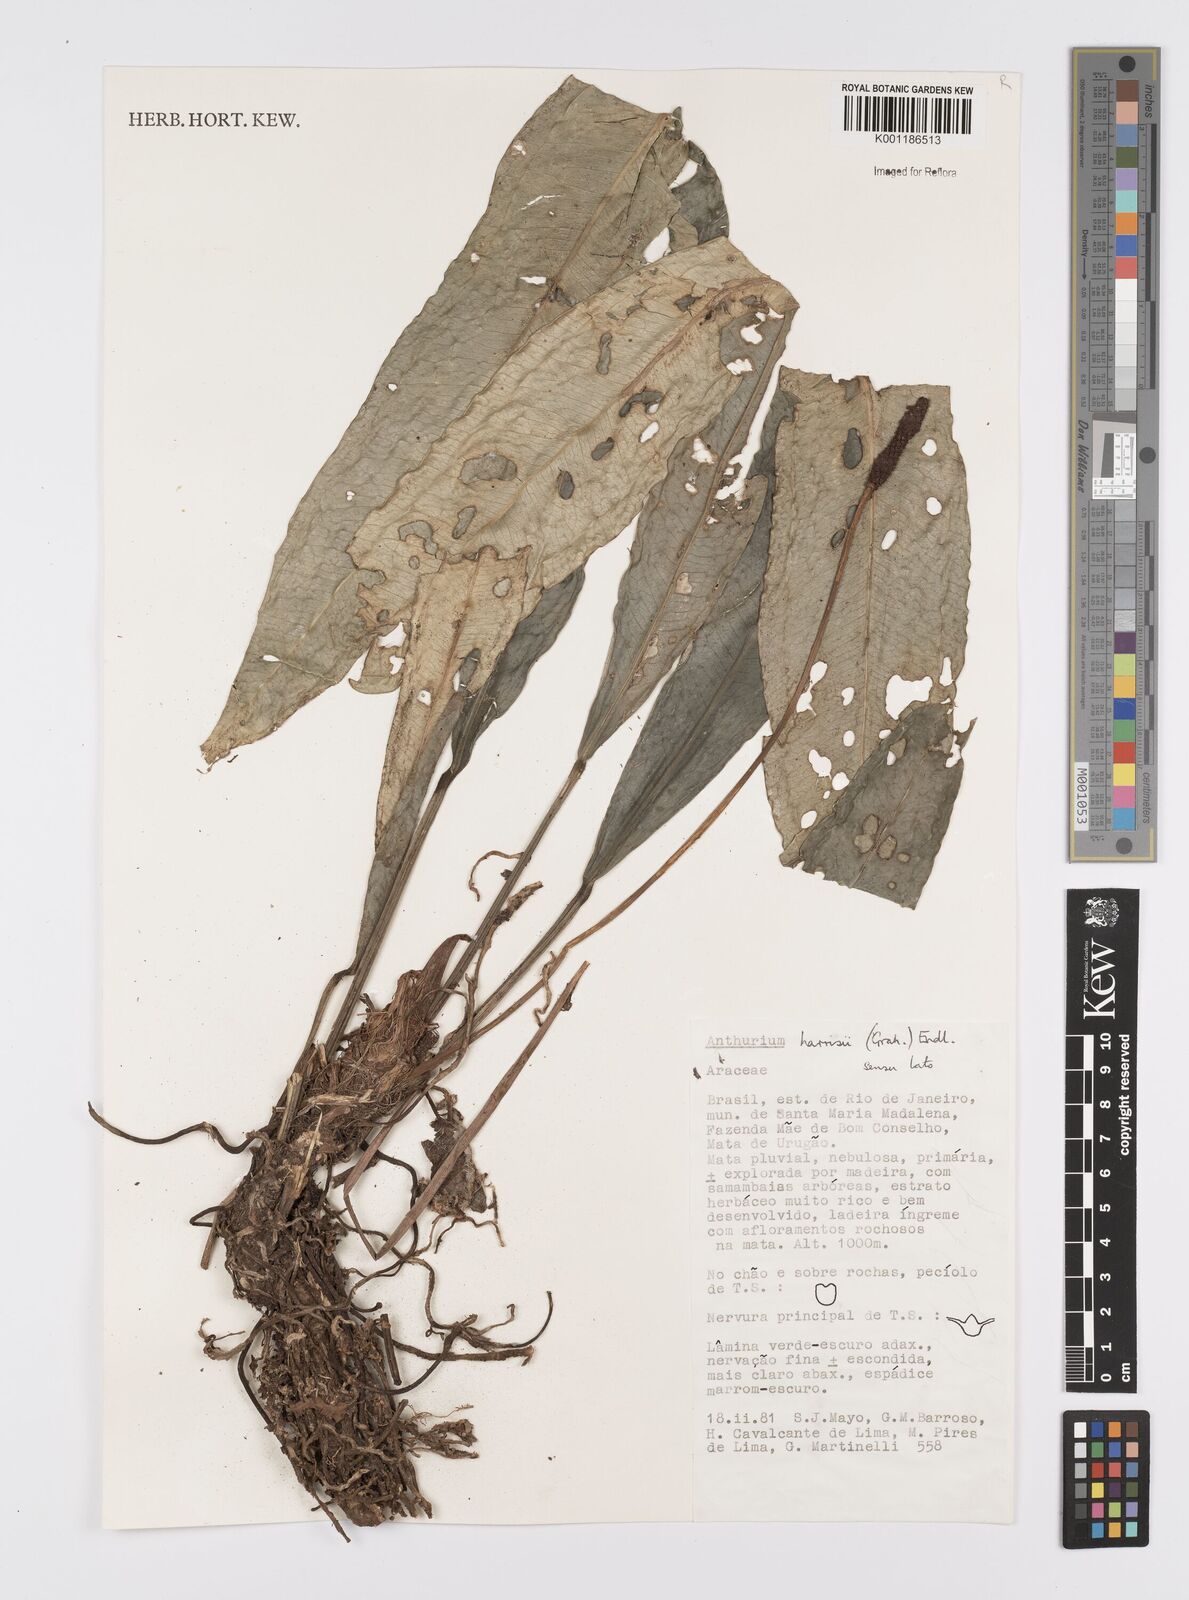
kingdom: Plantae
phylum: Tracheophyta
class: Liliopsida
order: Alismatales
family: Araceae
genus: Anthurium
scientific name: Anthurium harrisii
